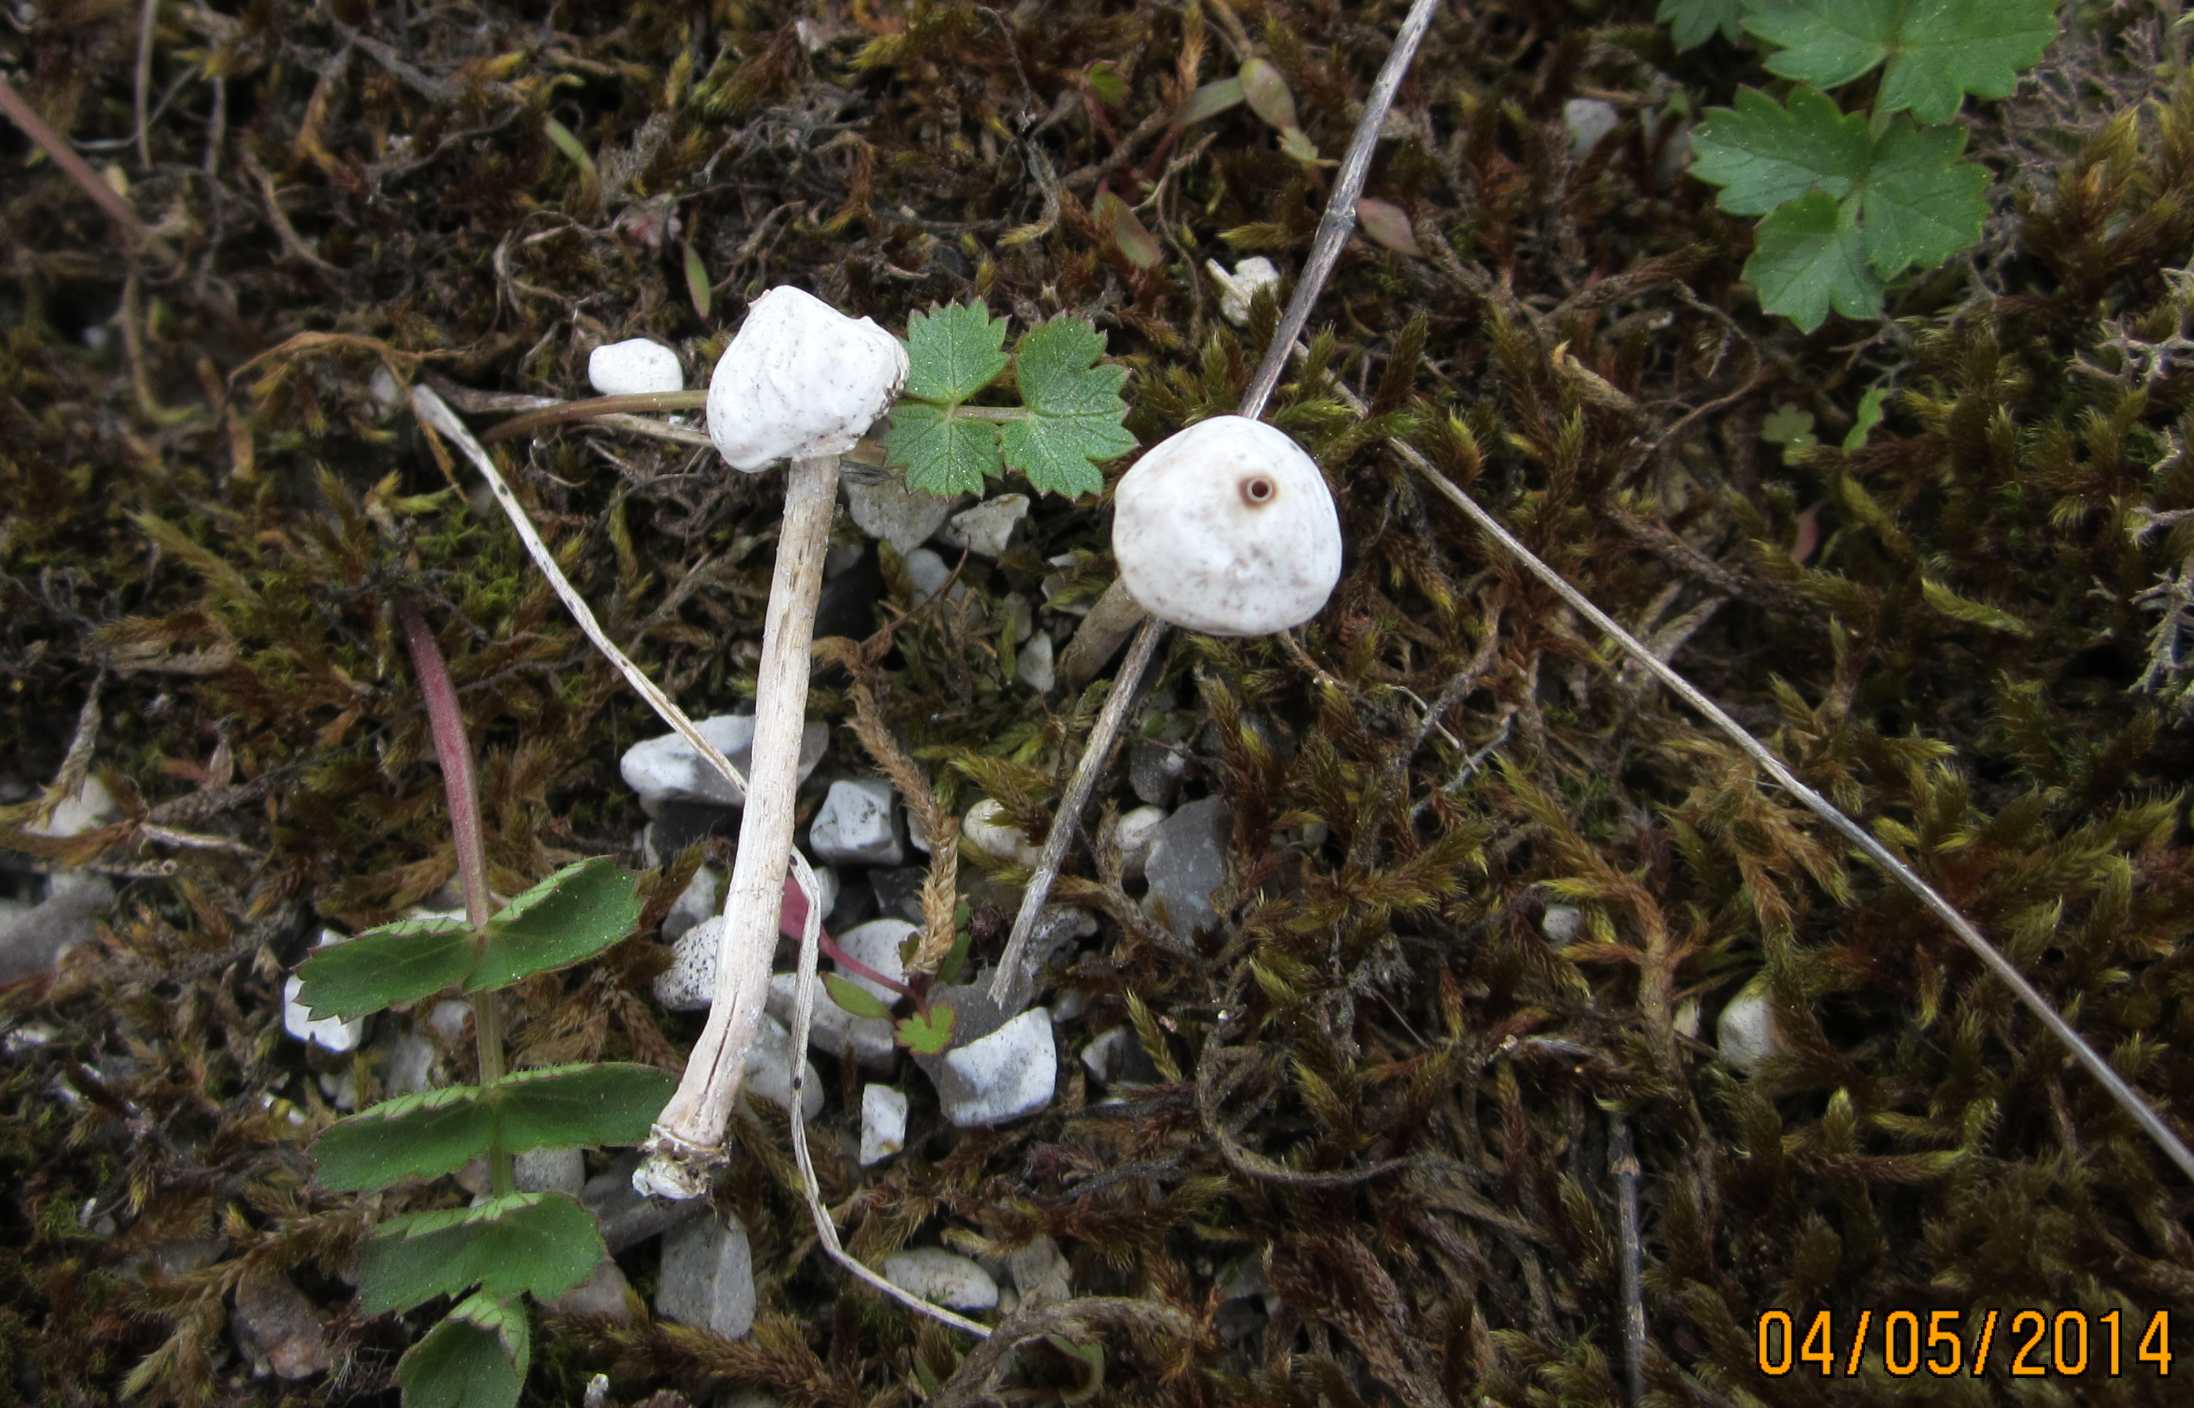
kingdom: Fungi
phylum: Basidiomycota
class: Agaricomycetes
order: Agaricales
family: Agaricaceae
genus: Tulostoma
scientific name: Tulostoma brumale
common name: vinter-stilkbovist
